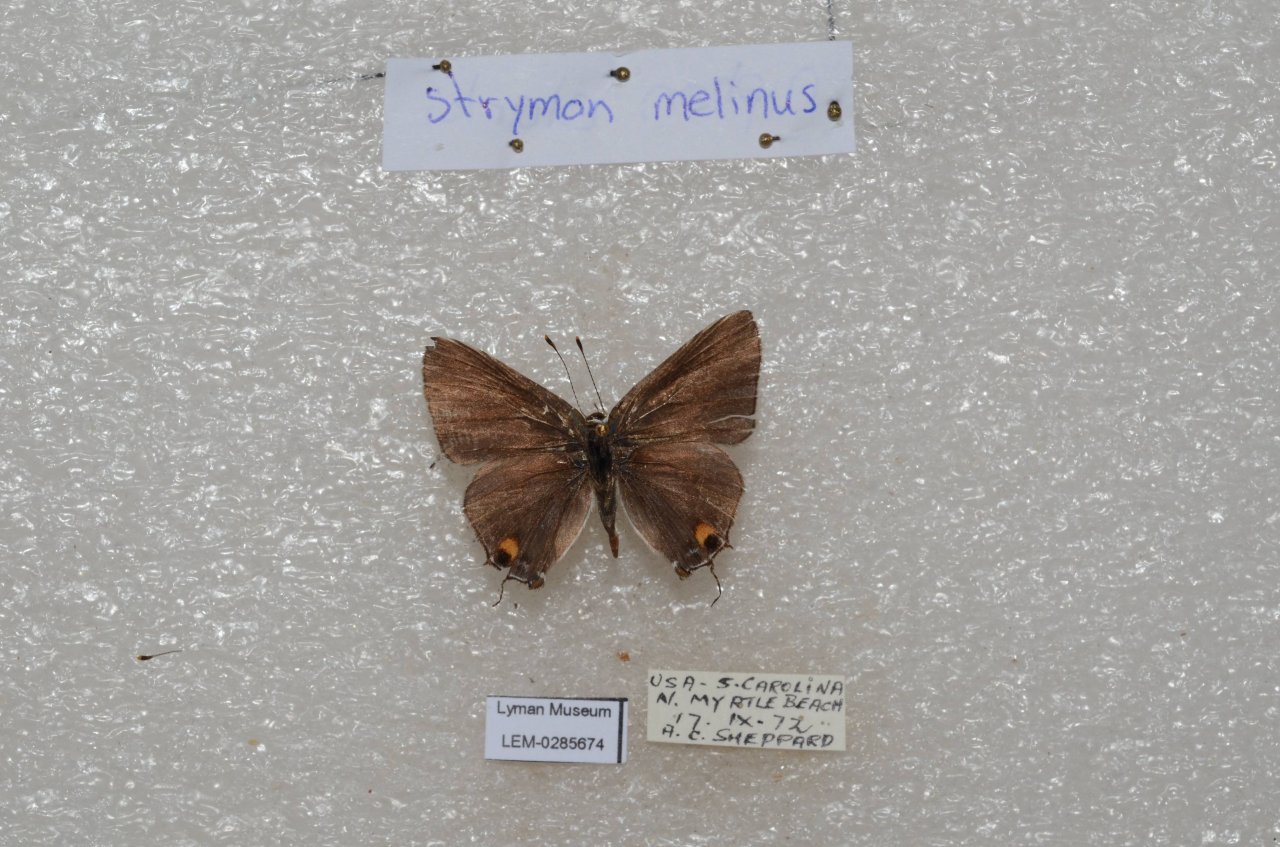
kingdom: Animalia
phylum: Arthropoda
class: Insecta
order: Lepidoptera
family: Lycaenidae
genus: Strymon
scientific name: Strymon melinus
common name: Gray Hairstreak
